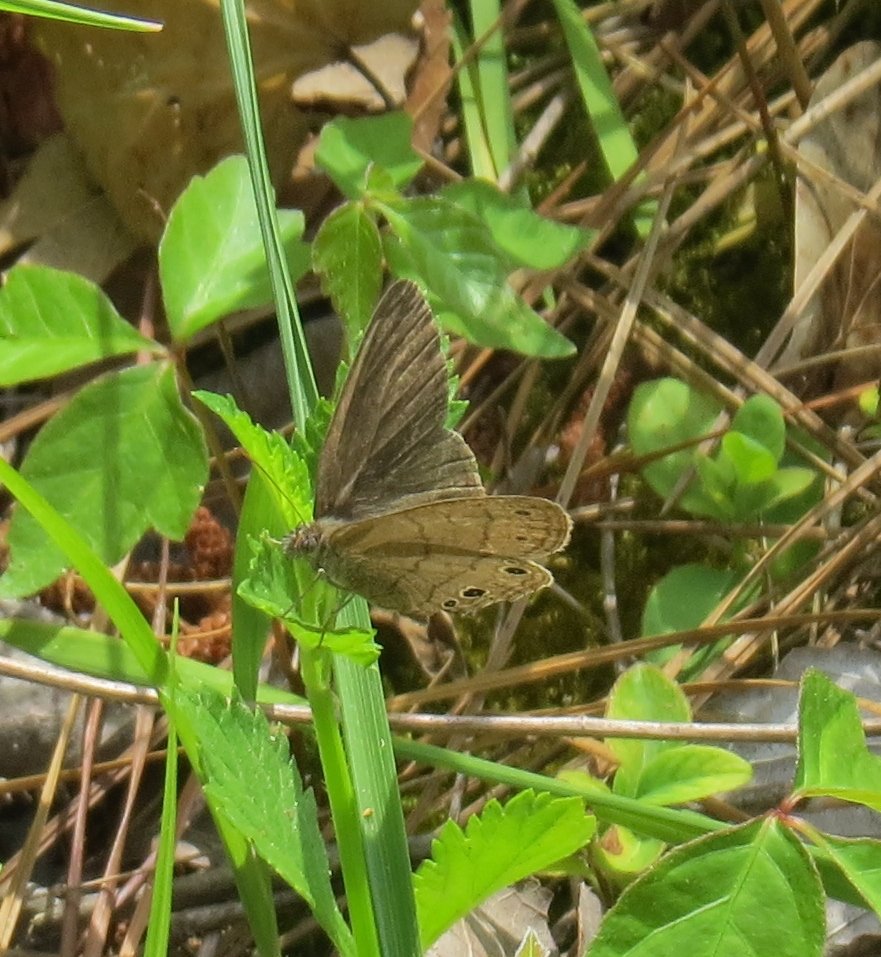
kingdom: Animalia
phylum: Arthropoda
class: Insecta
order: Lepidoptera
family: Nymphalidae
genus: Hermeuptychia
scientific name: Hermeuptychia hermes
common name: Carolina Satyr
